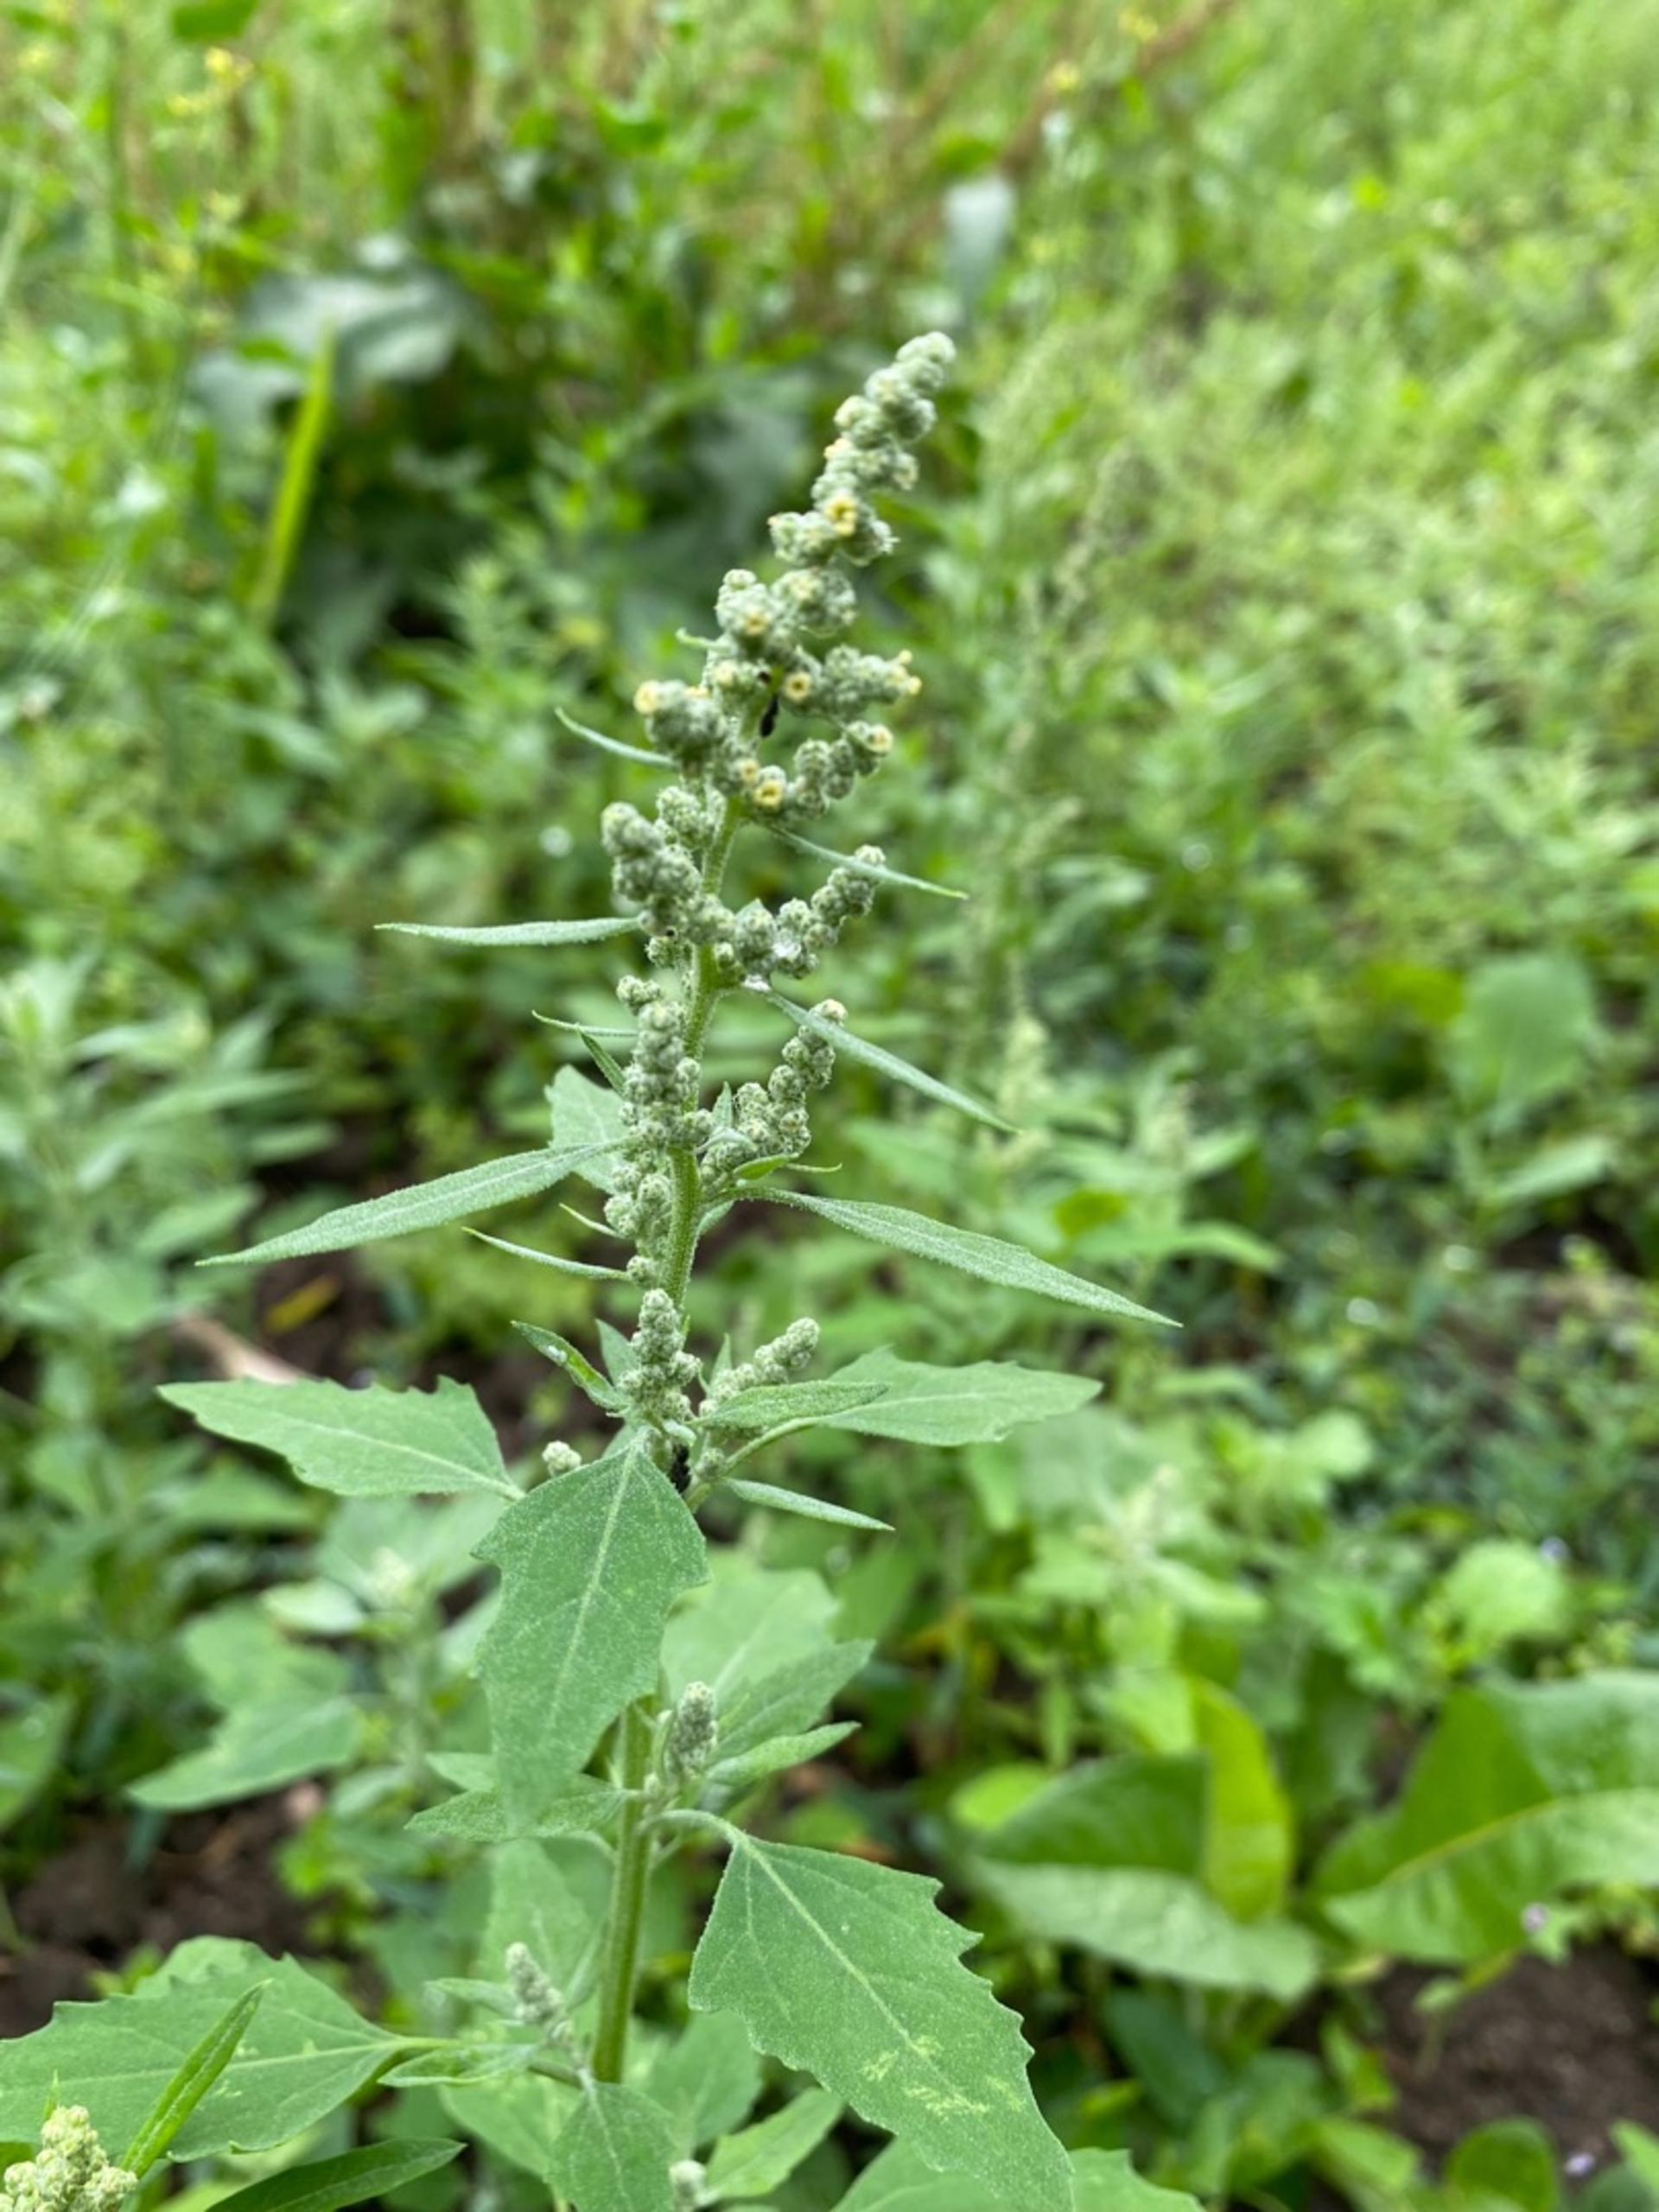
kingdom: Plantae
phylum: Tracheophyta
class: Magnoliopsida
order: Caryophyllales
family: Amaranthaceae
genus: Chenopodium
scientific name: Chenopodium album
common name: Hvidmelet gåsefod
